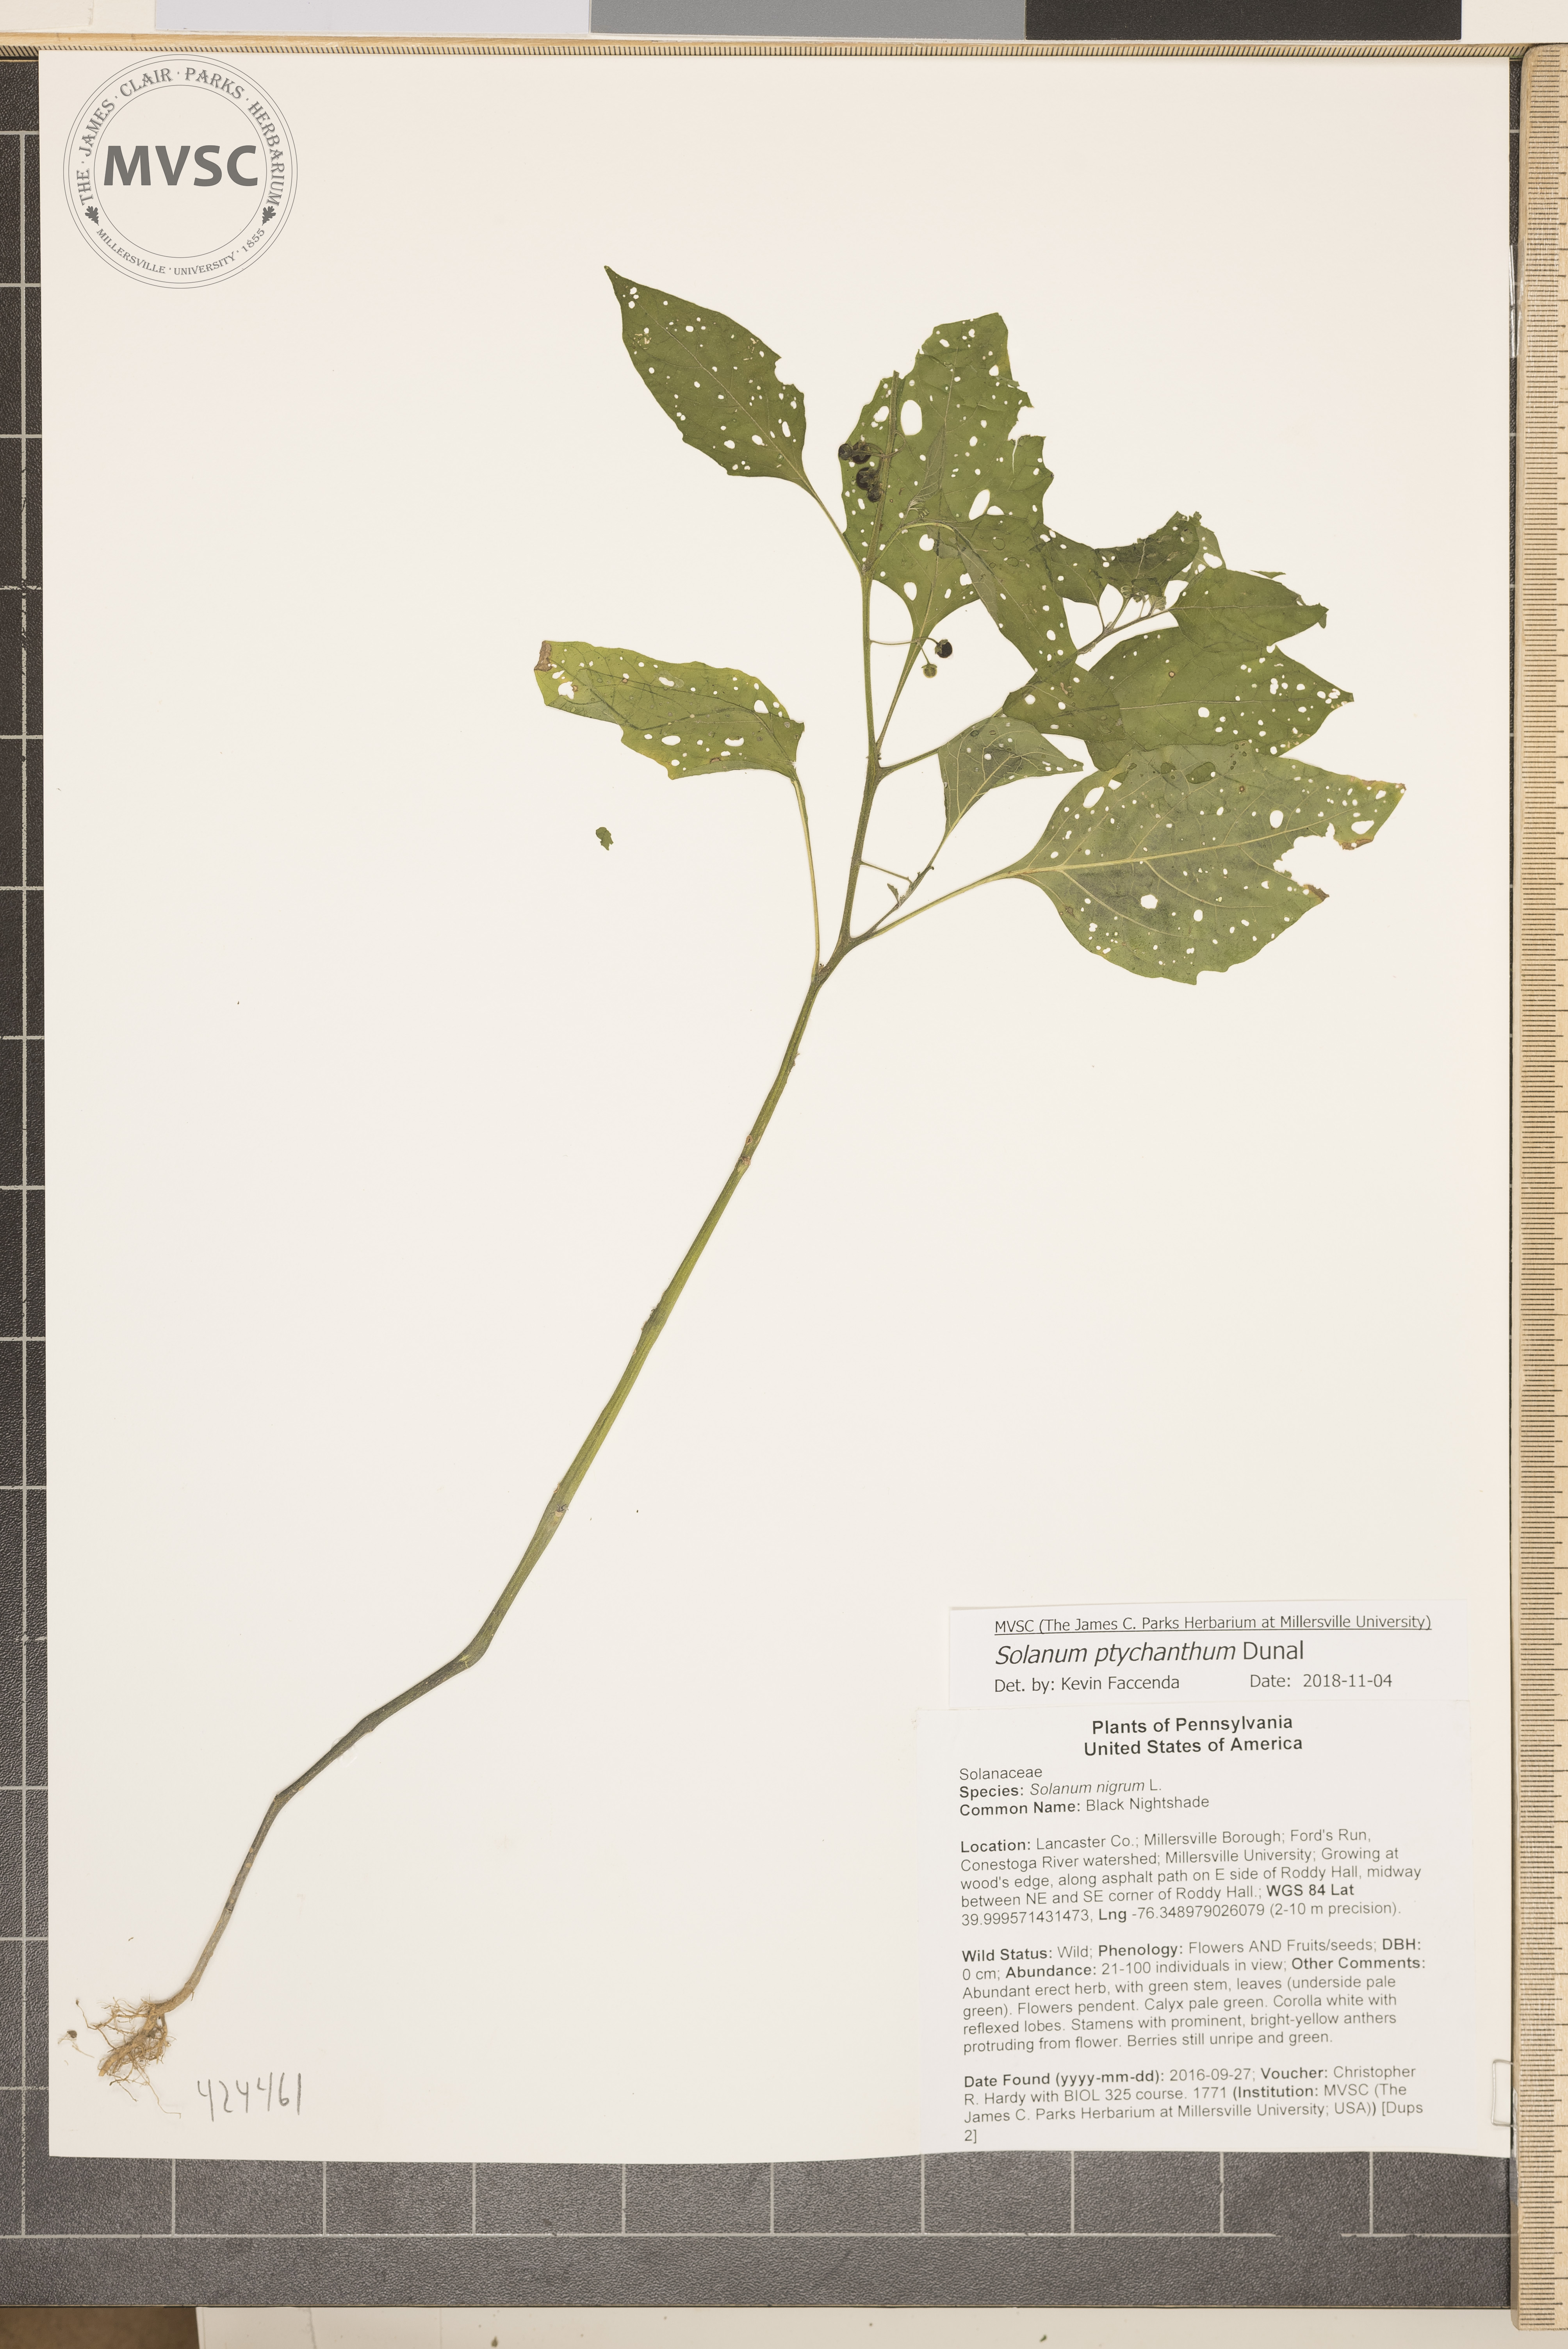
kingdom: Plantae
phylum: Tracheophyta
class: Magnoliopsida
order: Solanales
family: Solanaceae
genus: Solanum
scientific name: Solanum americanum
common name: Black Nightshade
